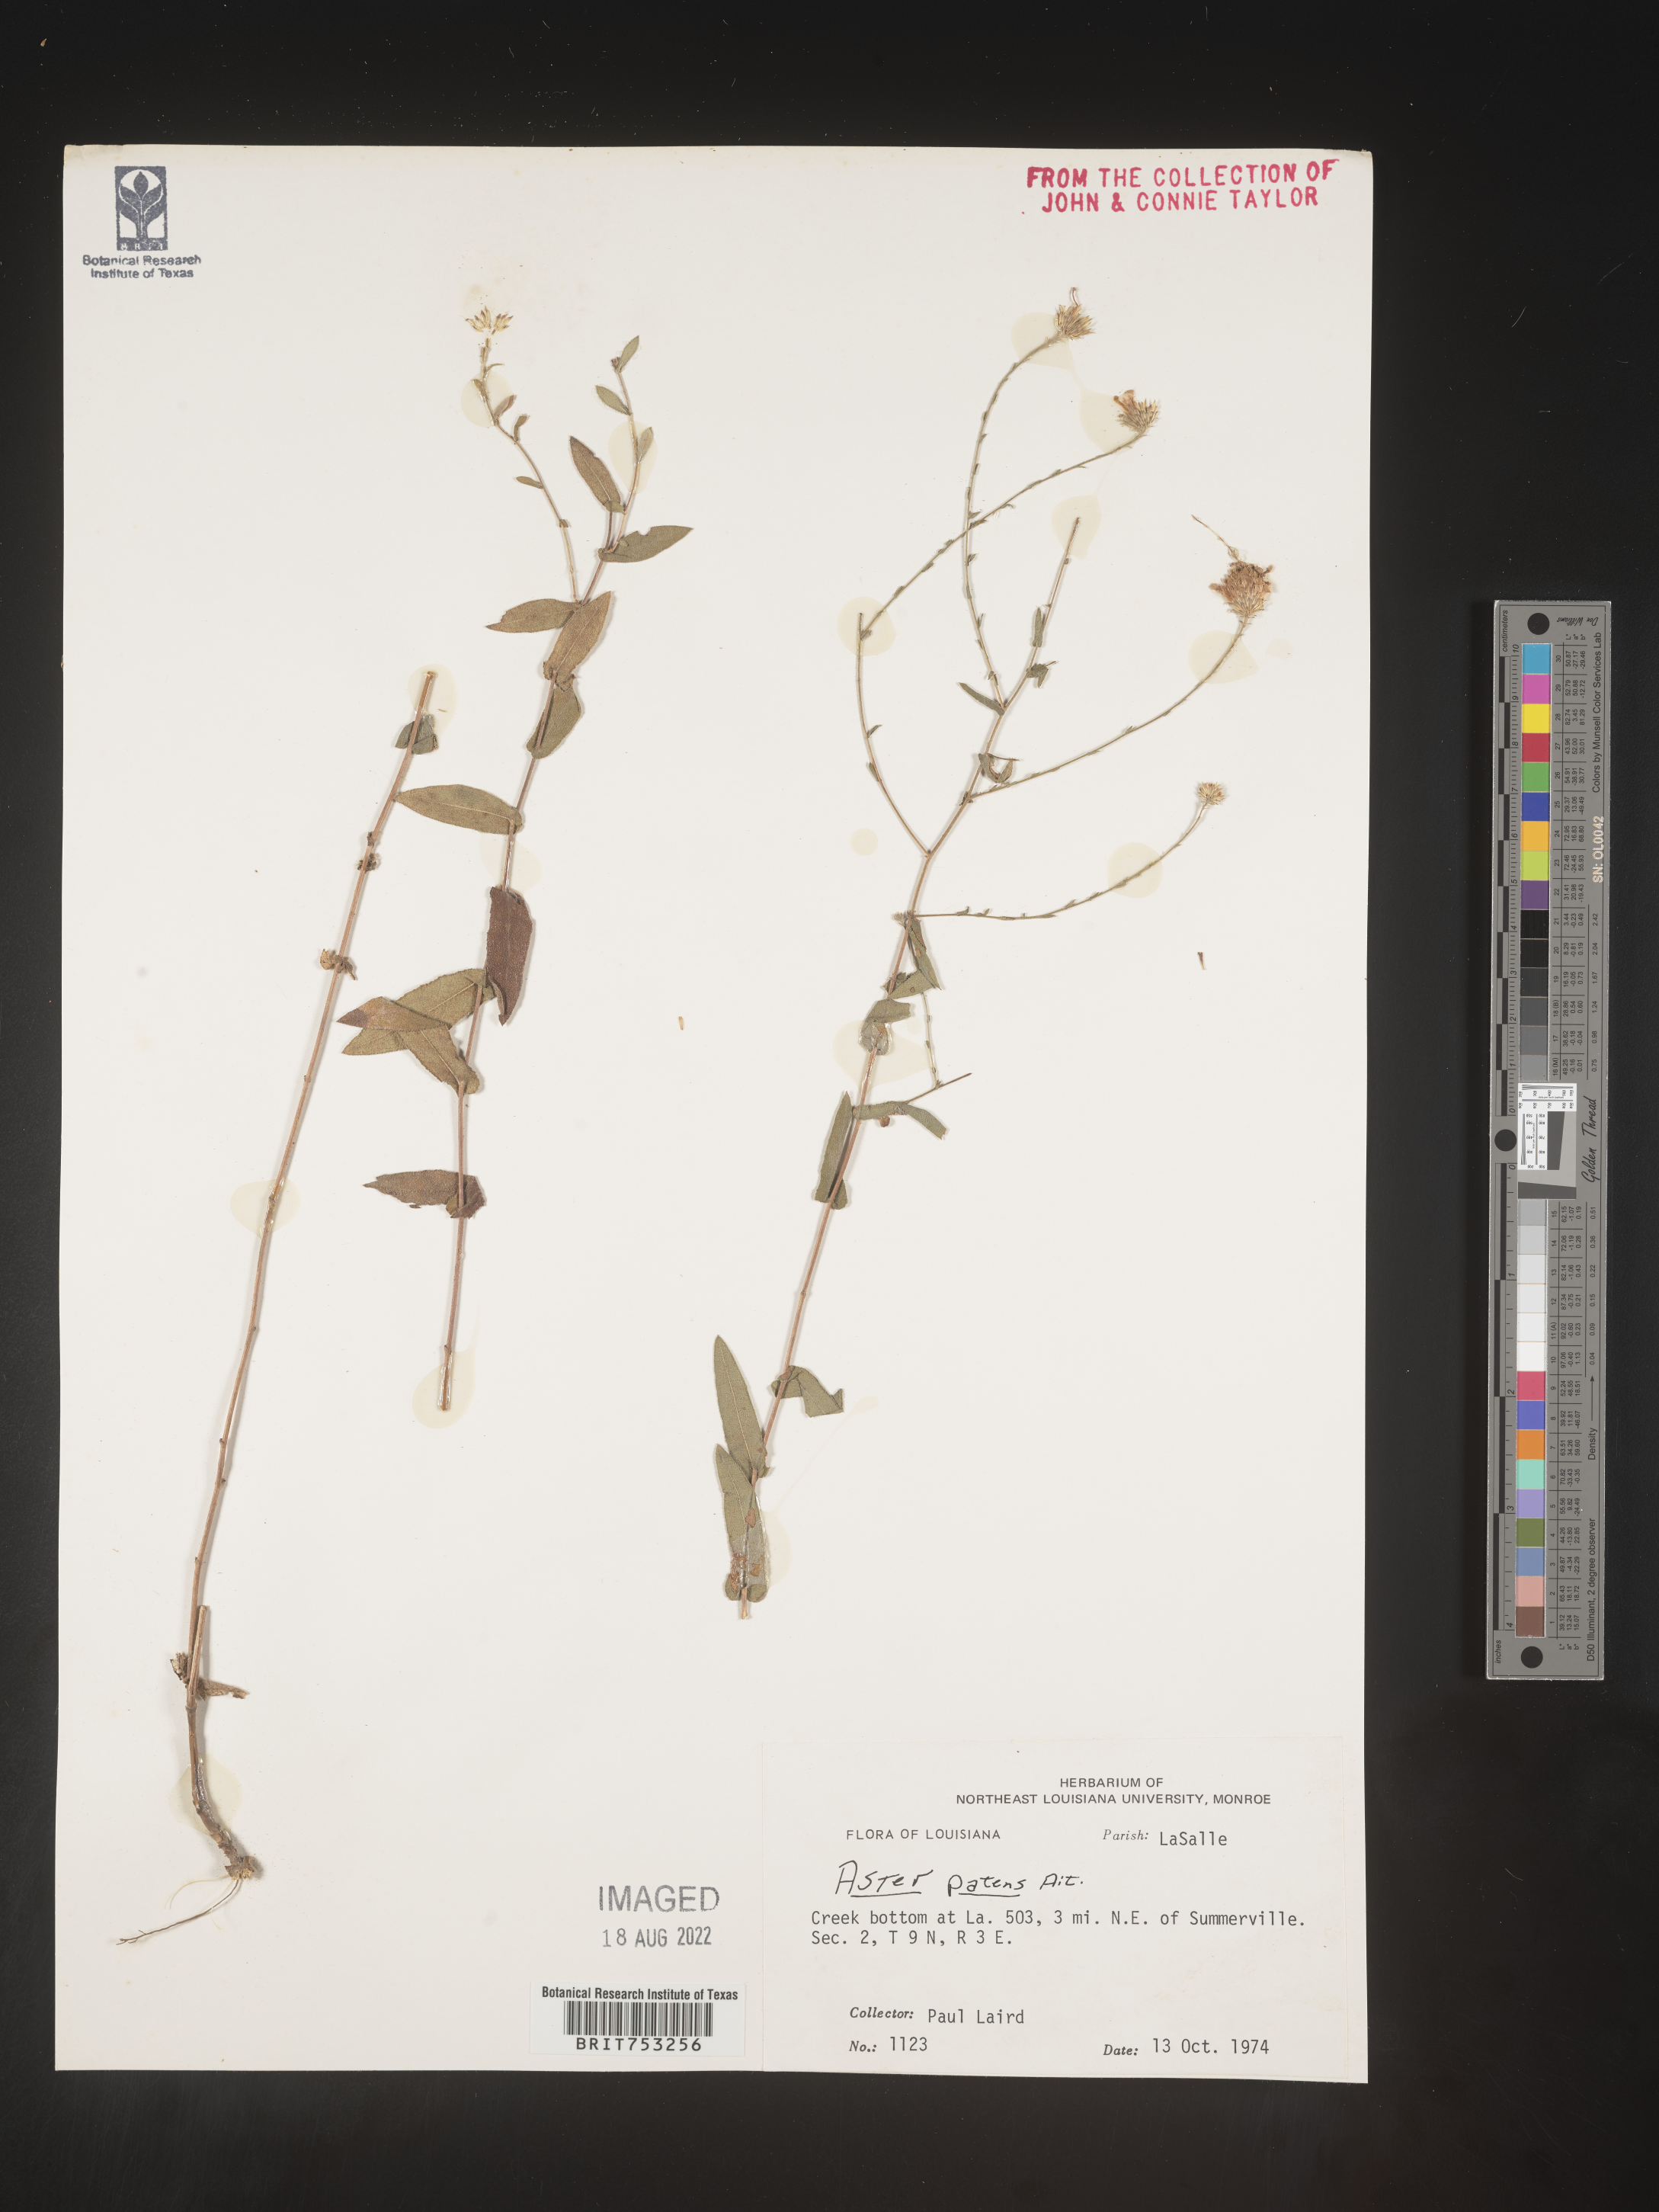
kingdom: Plantae
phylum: Tracheophyta
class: Magnoliopsida
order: Asterales
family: Asteraceae
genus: Symphyotrichum
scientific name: Symphyotrichum patens
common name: Late purple aster
